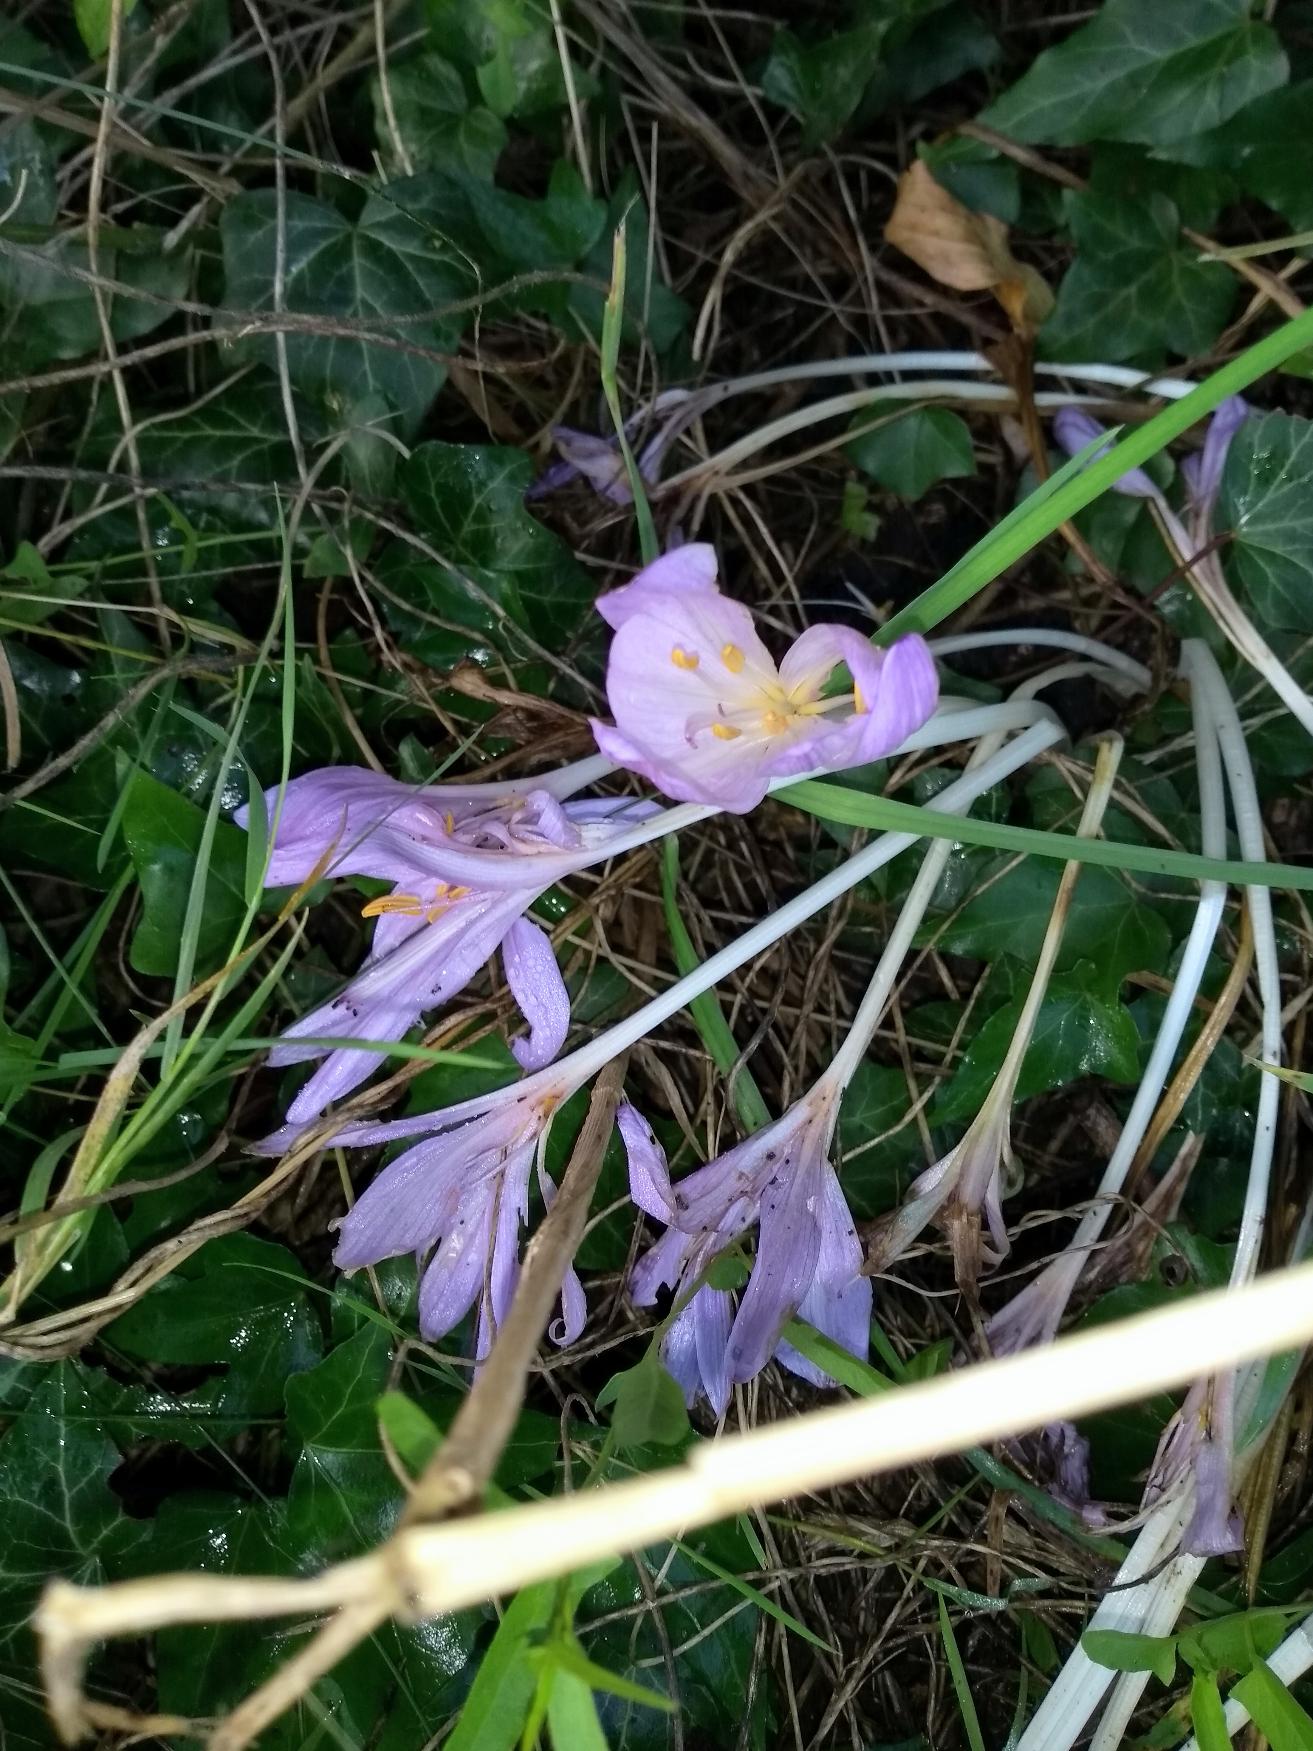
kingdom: Plantae
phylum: Tracheophyta
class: Liliopsida
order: Liliales
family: Colchicaceae
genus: Colchicum
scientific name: Colchicum autumnale
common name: Høst-tidløs
